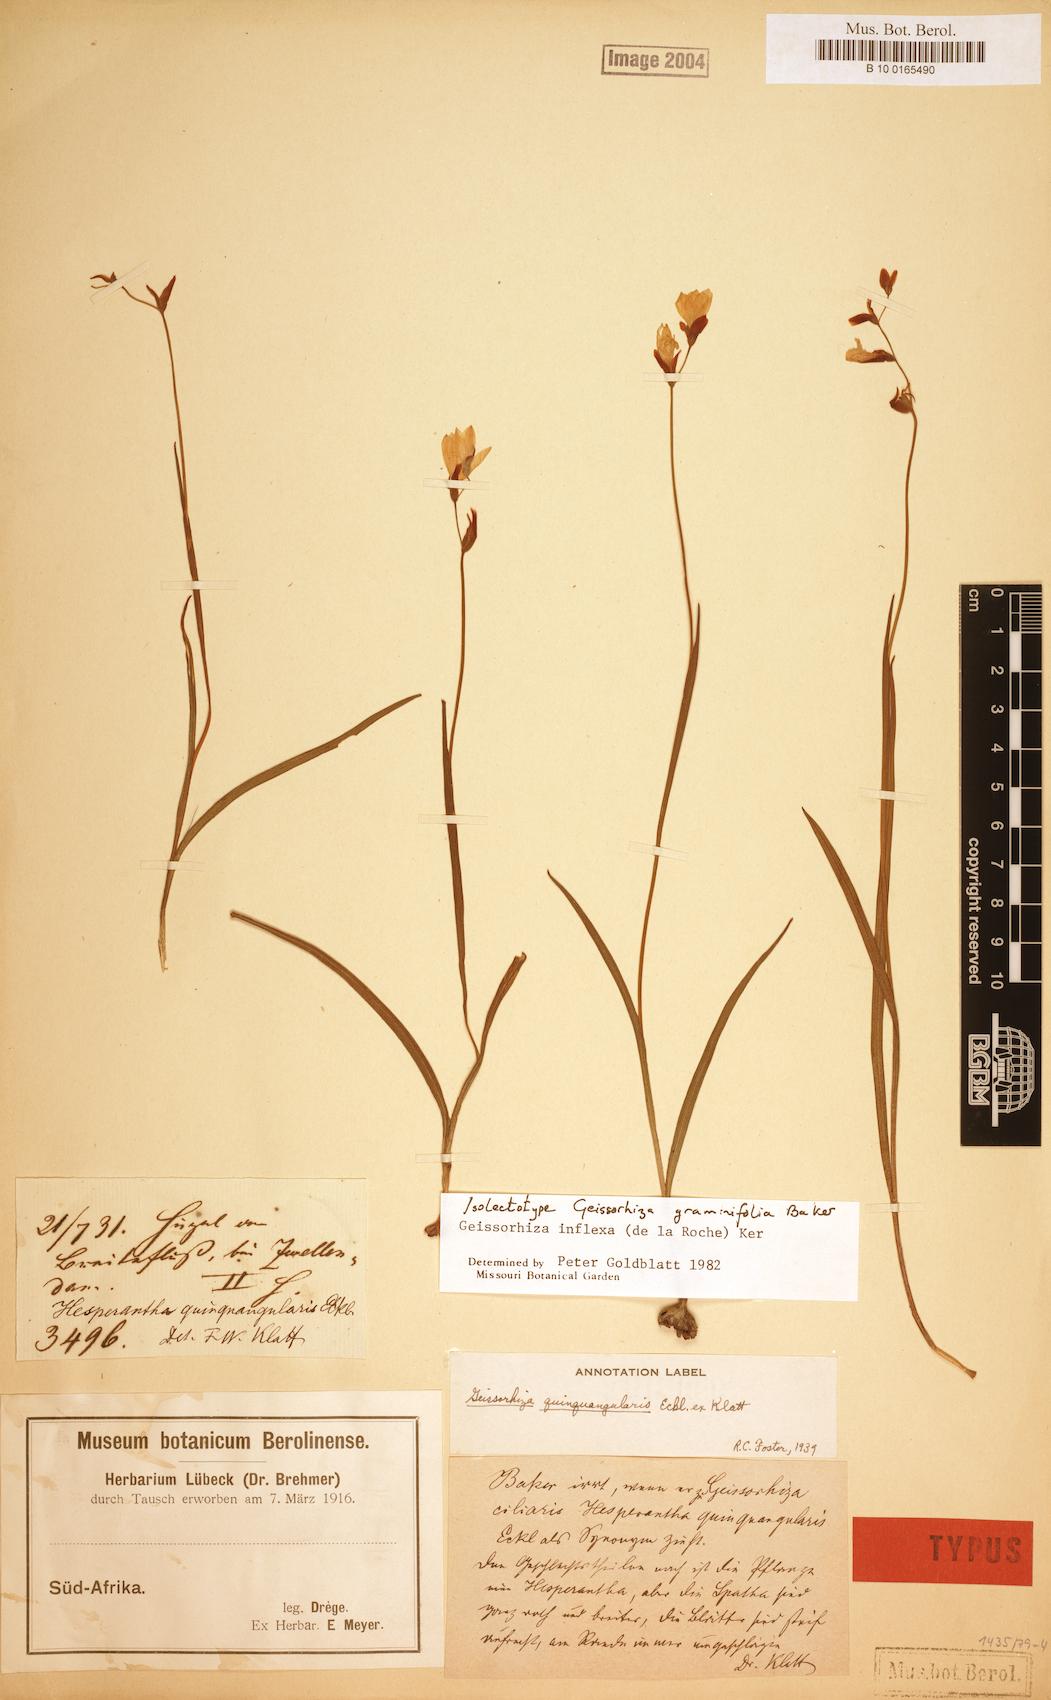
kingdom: Plantae
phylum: Tracheophyta
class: Liliopsida
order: Asparagales
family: Iridaceae
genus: Geissorhiza
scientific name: Geissorhiza inflexa
